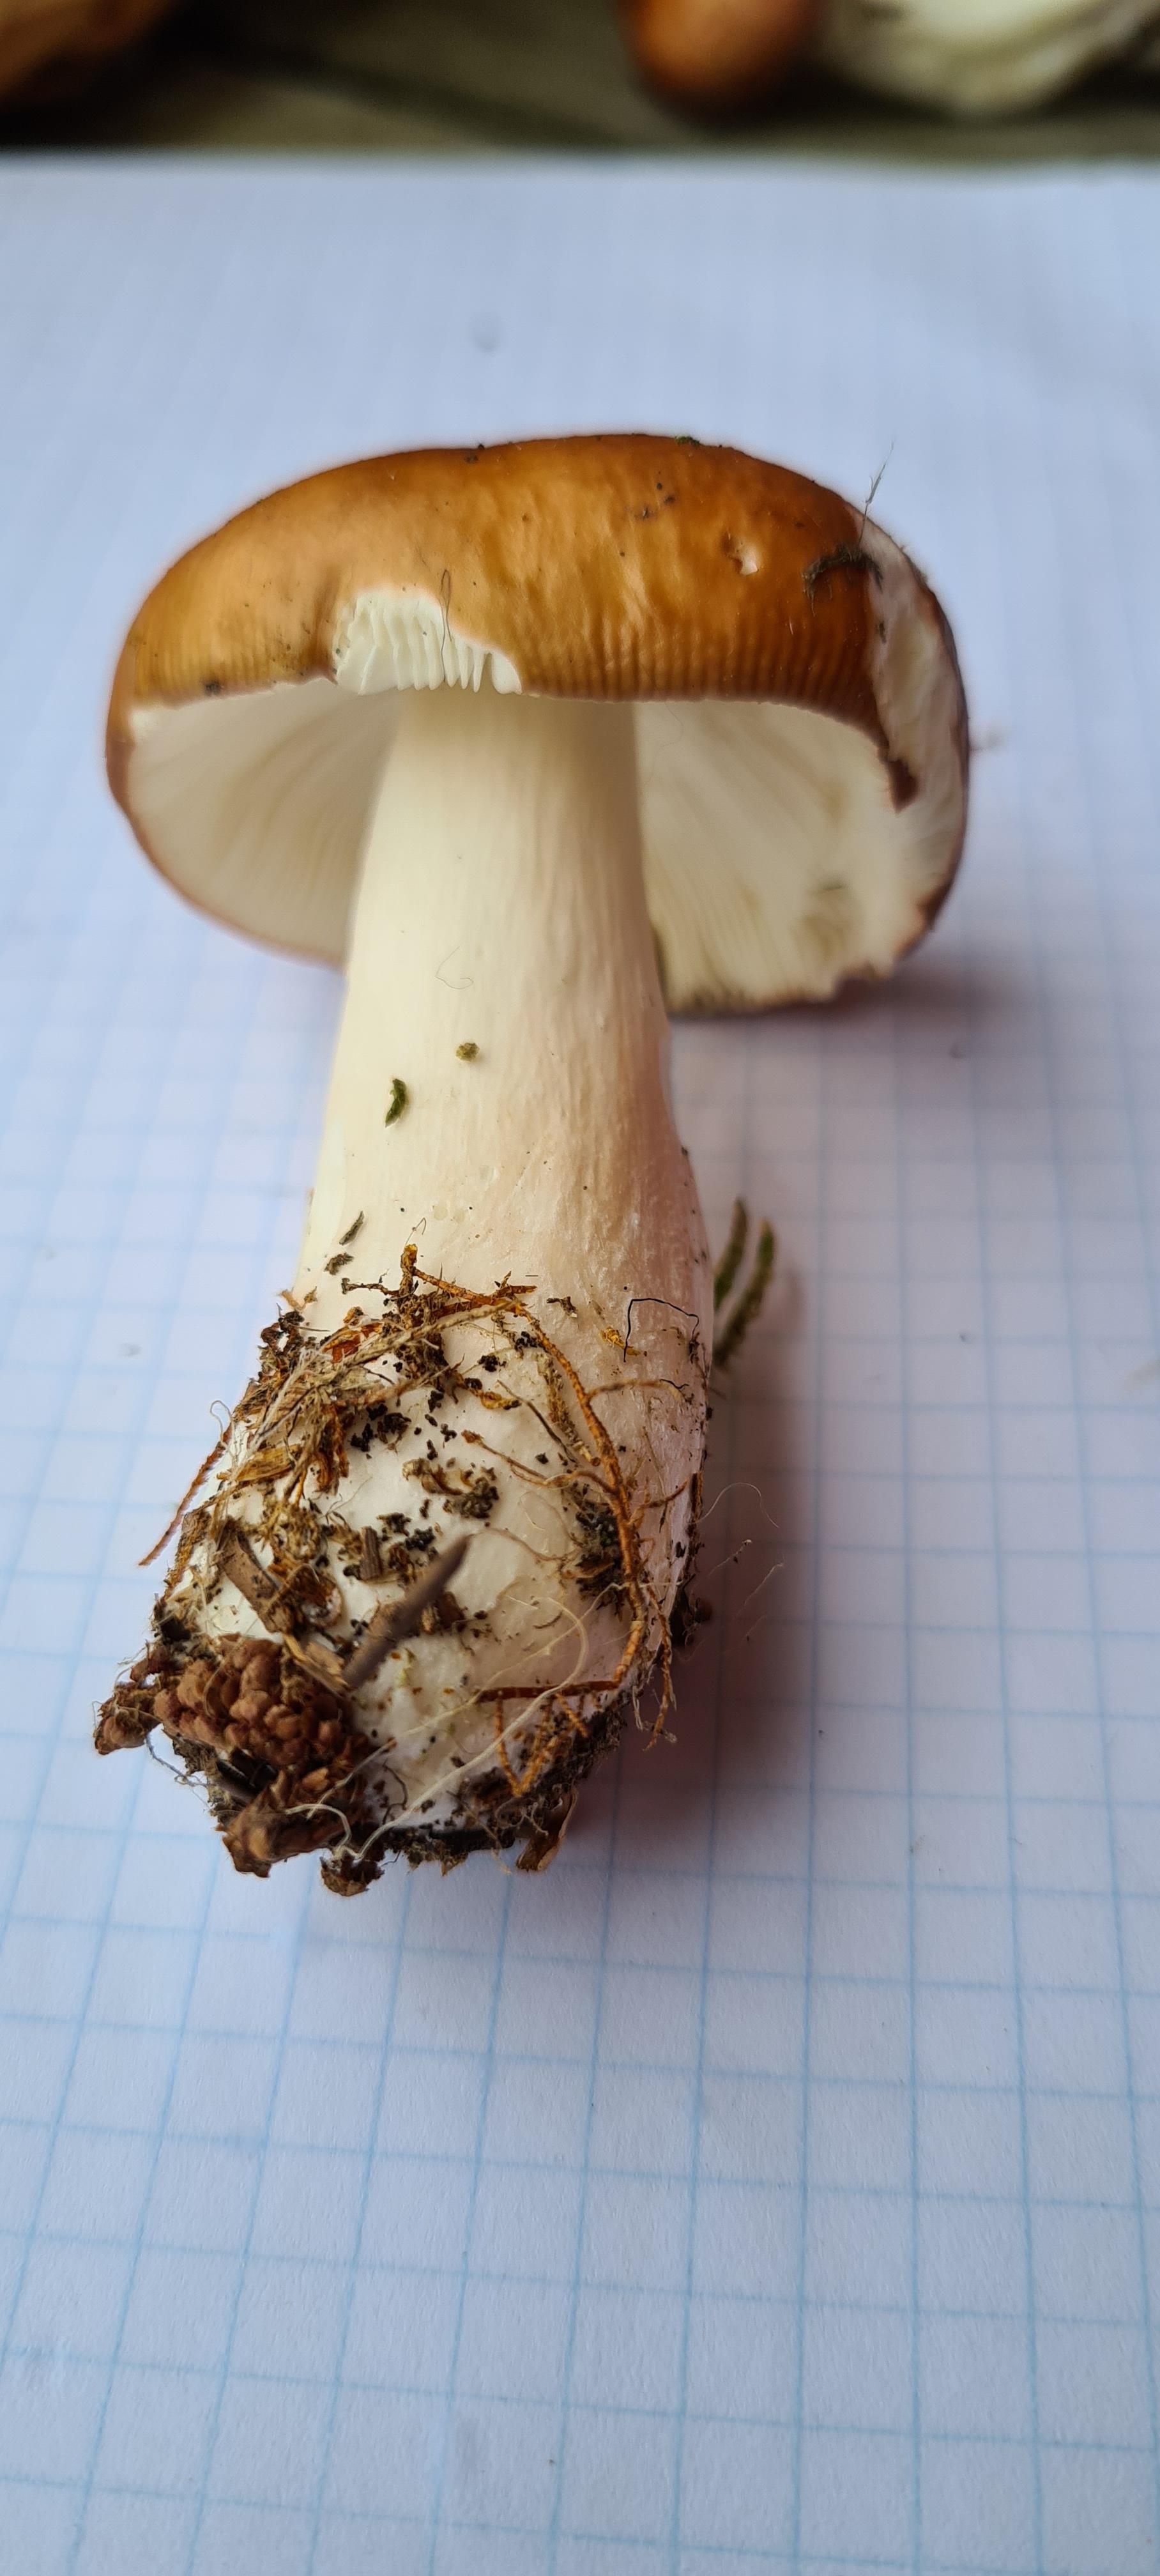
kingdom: Fungi
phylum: Basidiomycota
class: Agaricomycetes
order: Russulales
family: Russulaceae
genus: Russula
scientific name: Russula paludosa
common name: prægtig skørhat
